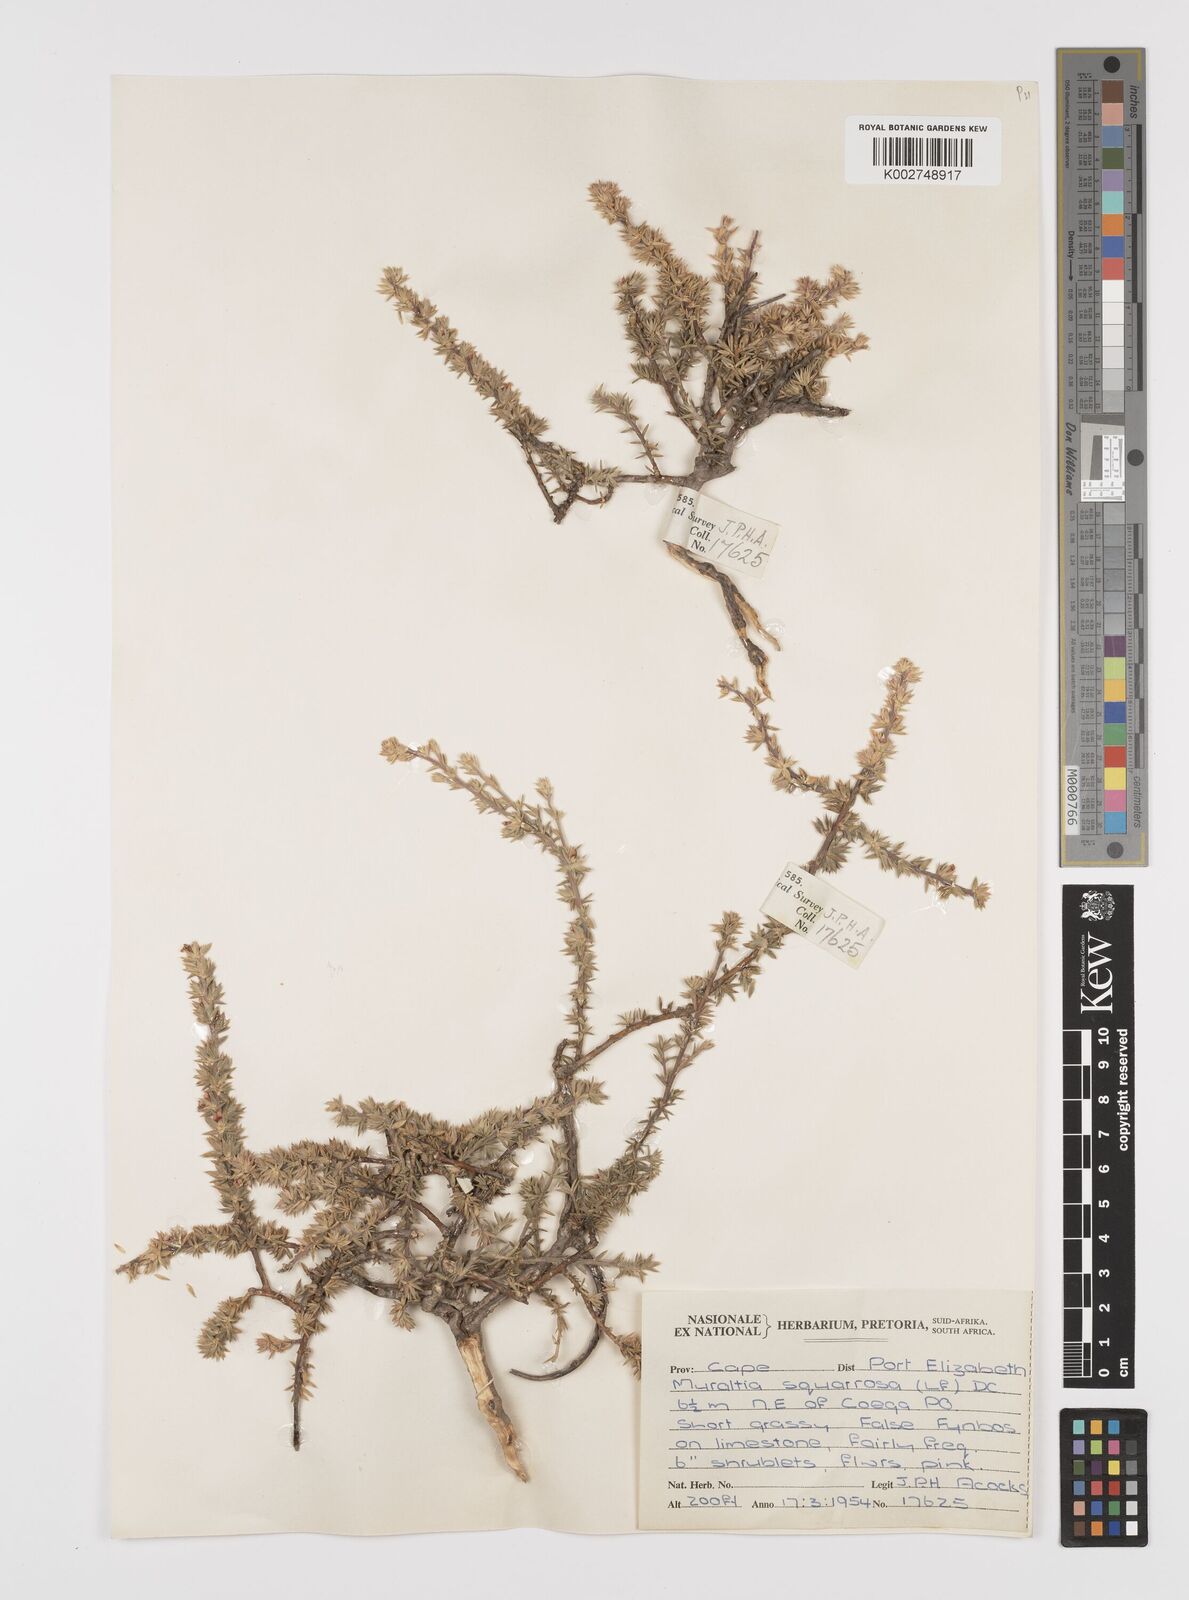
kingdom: Plantae
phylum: Tracheophyta
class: Magnoliopsida
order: Fabales
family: Polygalaceae
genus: Muraltia
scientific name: Muraltia squarrosa
